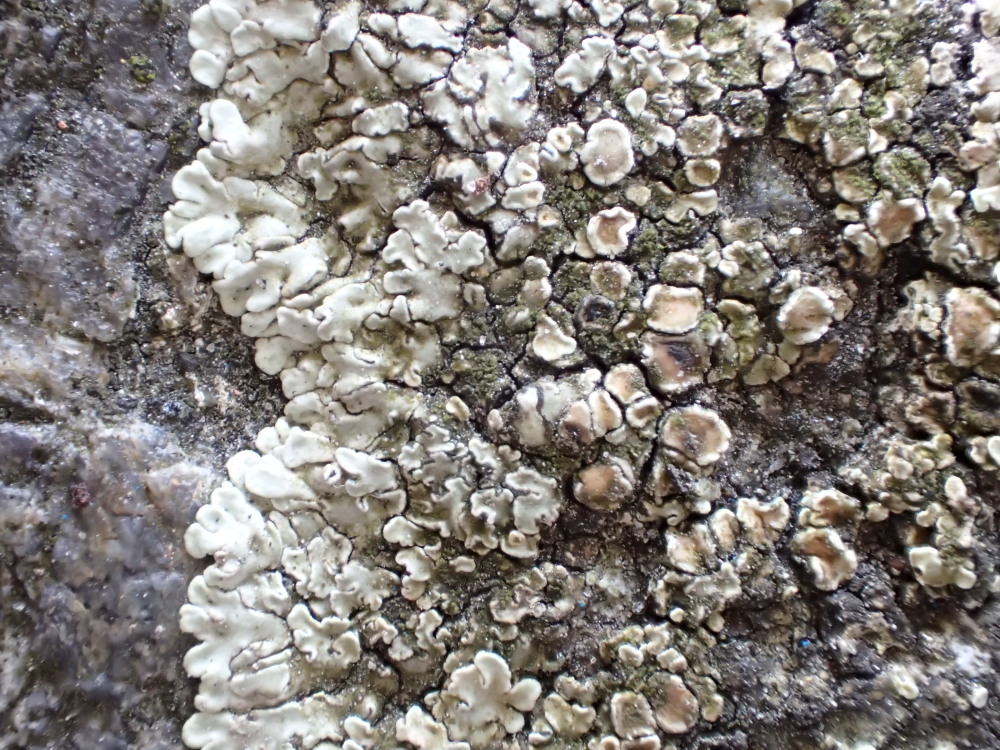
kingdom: Fungi
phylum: Ascomycota
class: Lecanoromycetes
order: Lecanorales
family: Lecanoraceae
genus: Protoparmeliopsis
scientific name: Protoparmeliopsis muralis
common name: randfliget kantskivelav
